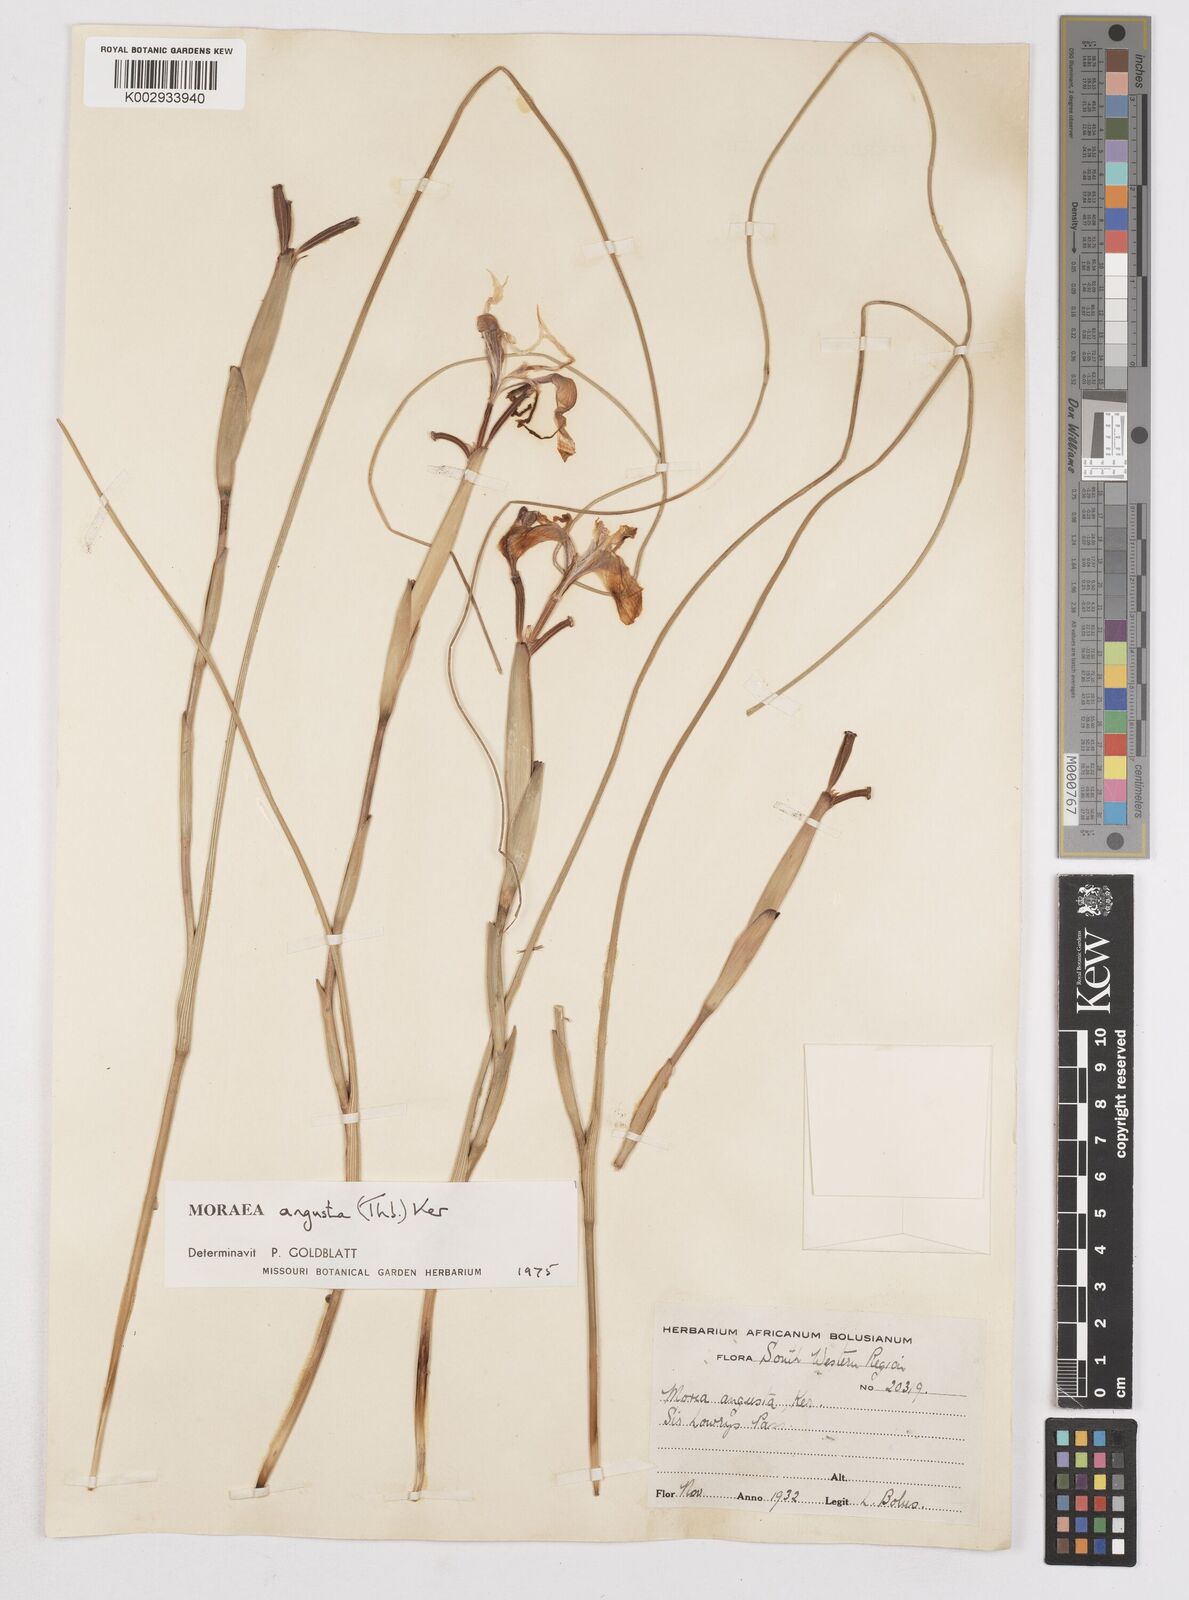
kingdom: Plantae
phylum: Tracheophyta
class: Liliopsida
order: Asparagales
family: Iridaceae
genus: Moraea
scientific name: Moraea angusta
